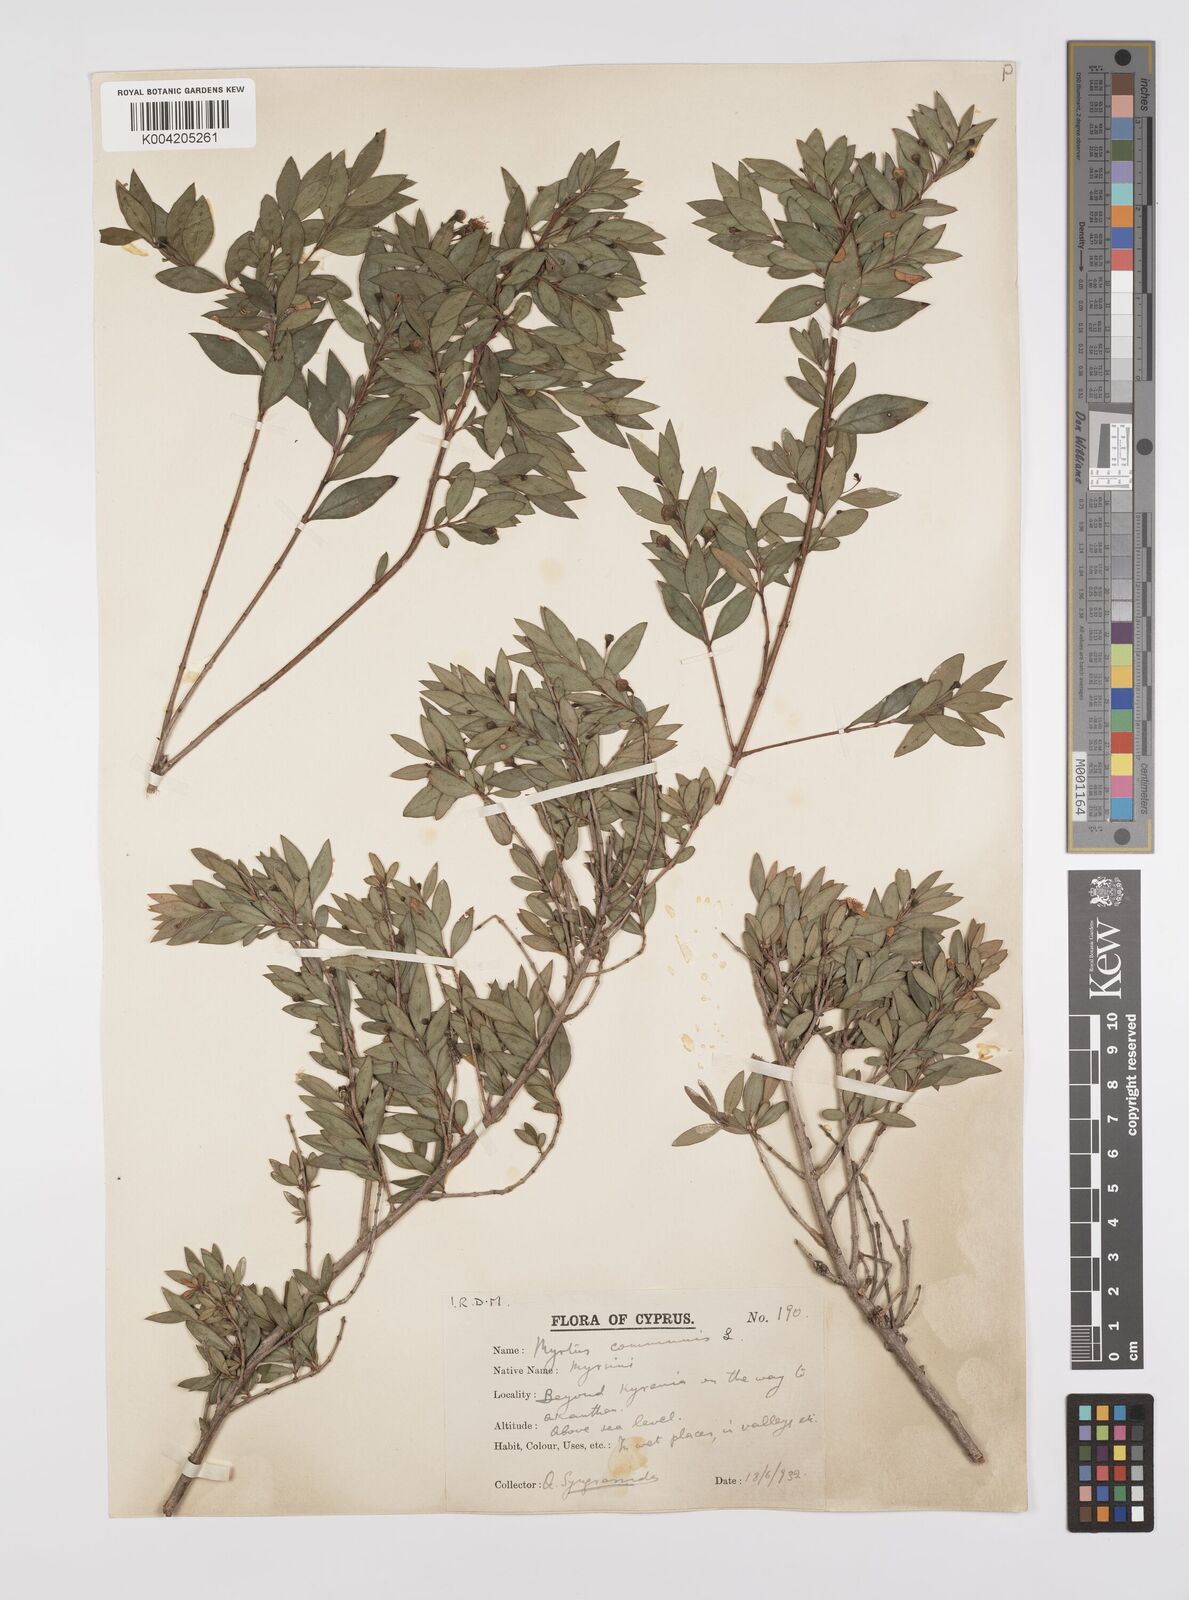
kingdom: Plantae
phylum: Tracheophyta
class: Magnoliopsida
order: Myrtales
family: Myrtaceae
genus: Myrtus
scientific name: Myrtus communis
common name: Myrtle
